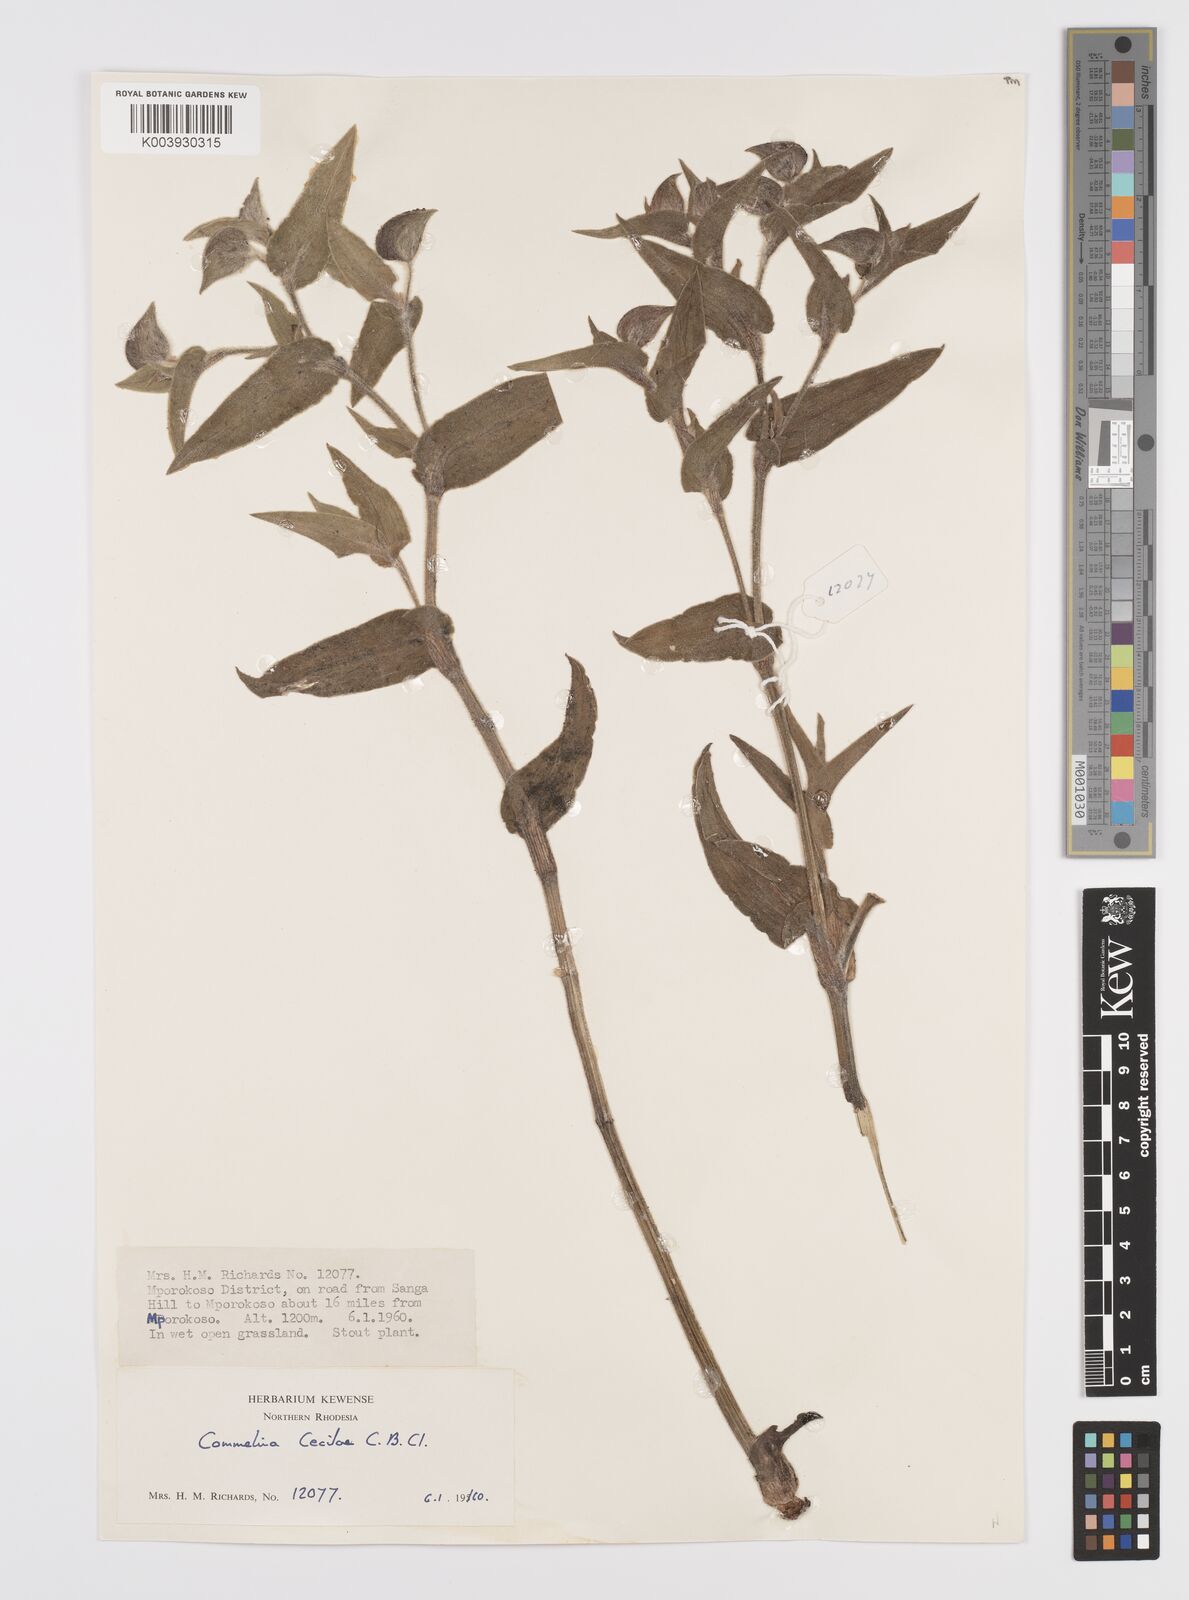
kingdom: Plantae
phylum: Tracheophyta
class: Liliopsida
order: Commelinales
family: Commelinaceae
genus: Commelina
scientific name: Commelina cecilae
